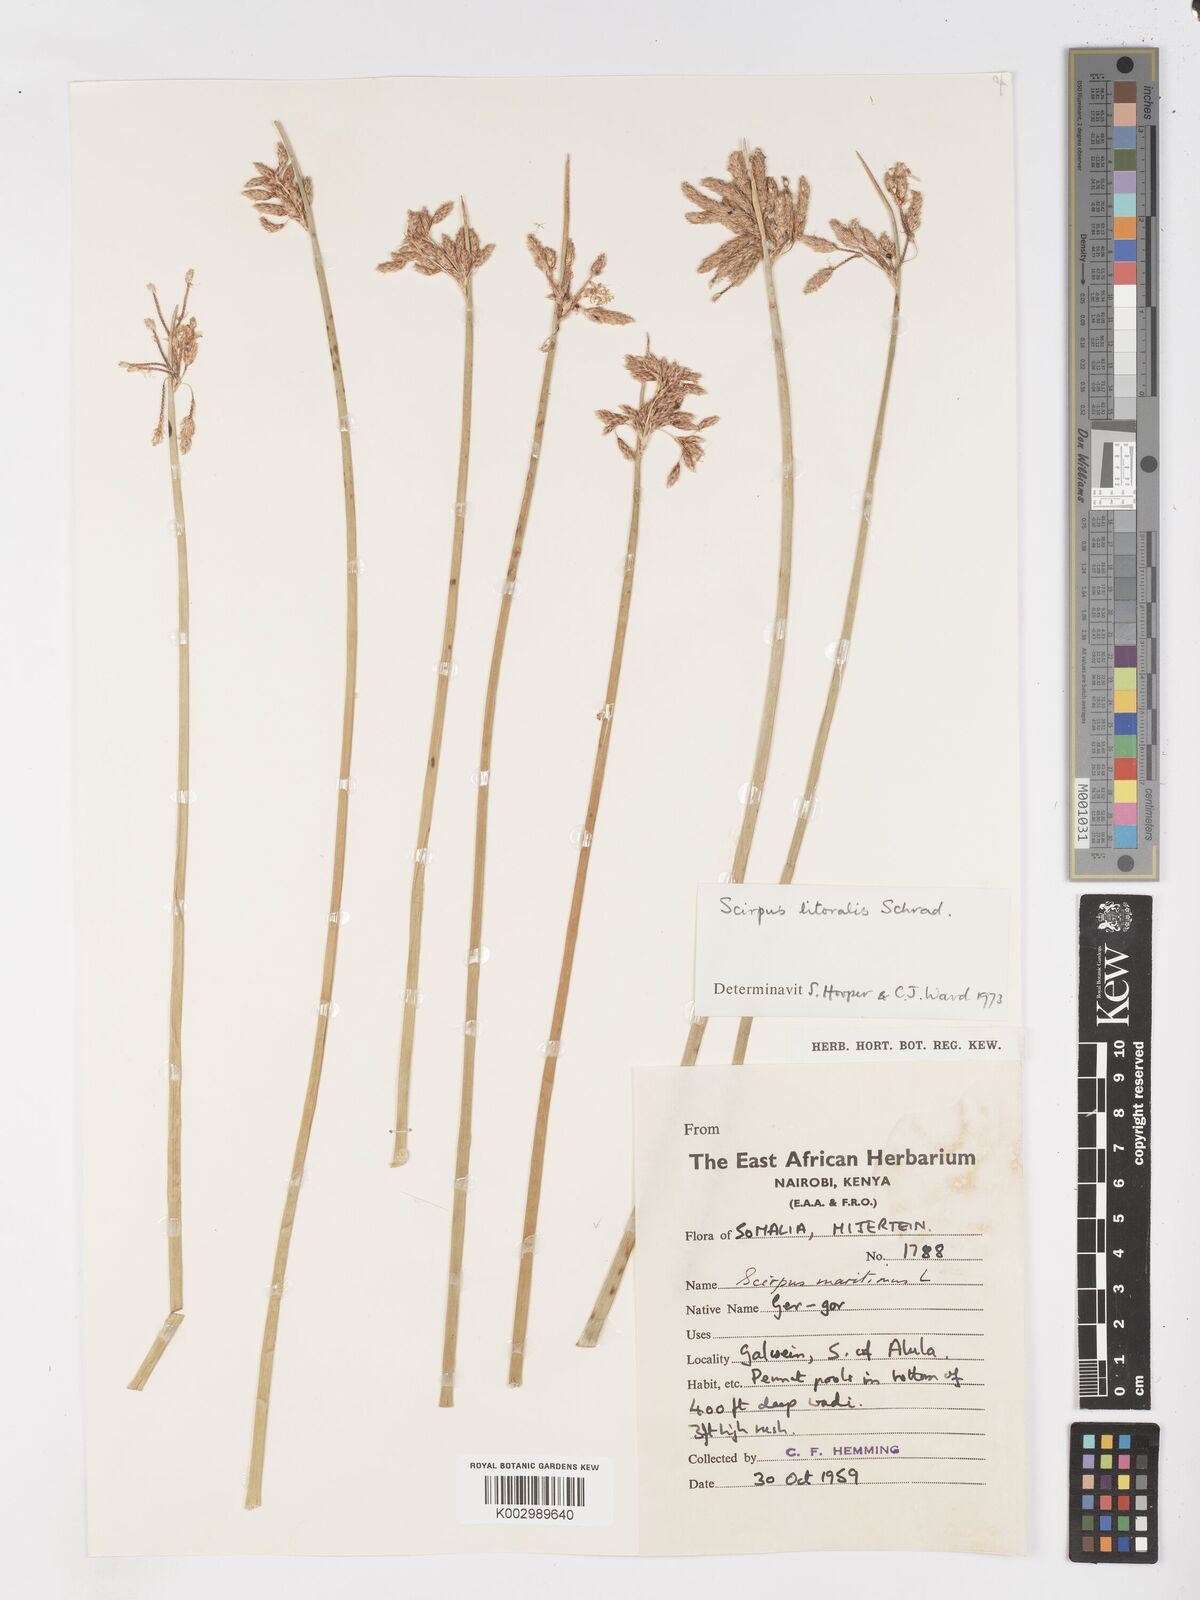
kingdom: Plantae
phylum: Tracheophyta
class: Liliopsida
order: Poales
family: Cyperaceae
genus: Schoenoplectus
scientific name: Schoenoplectus litoralis
